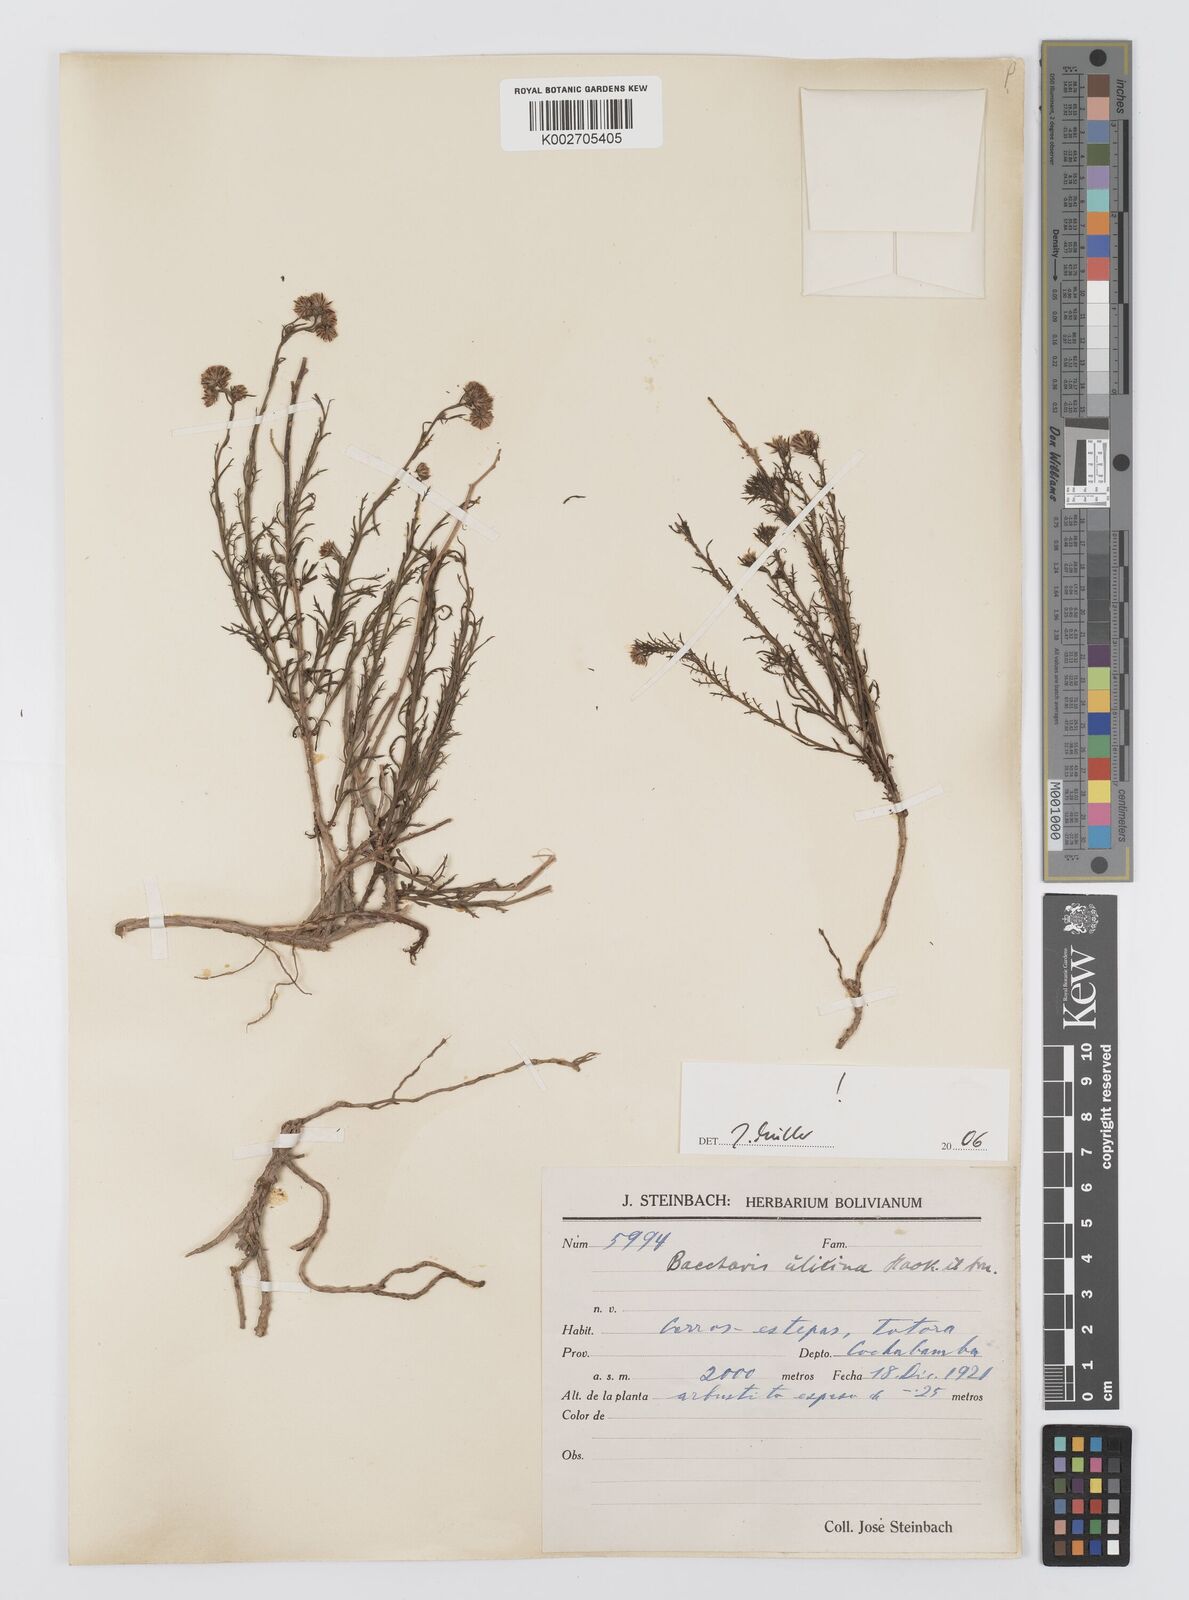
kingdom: Plantae
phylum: Tracheophyta
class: Magnoliopsida
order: Asterales
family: Asteraceae
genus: Baccharis
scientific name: Baccharis ulicina
